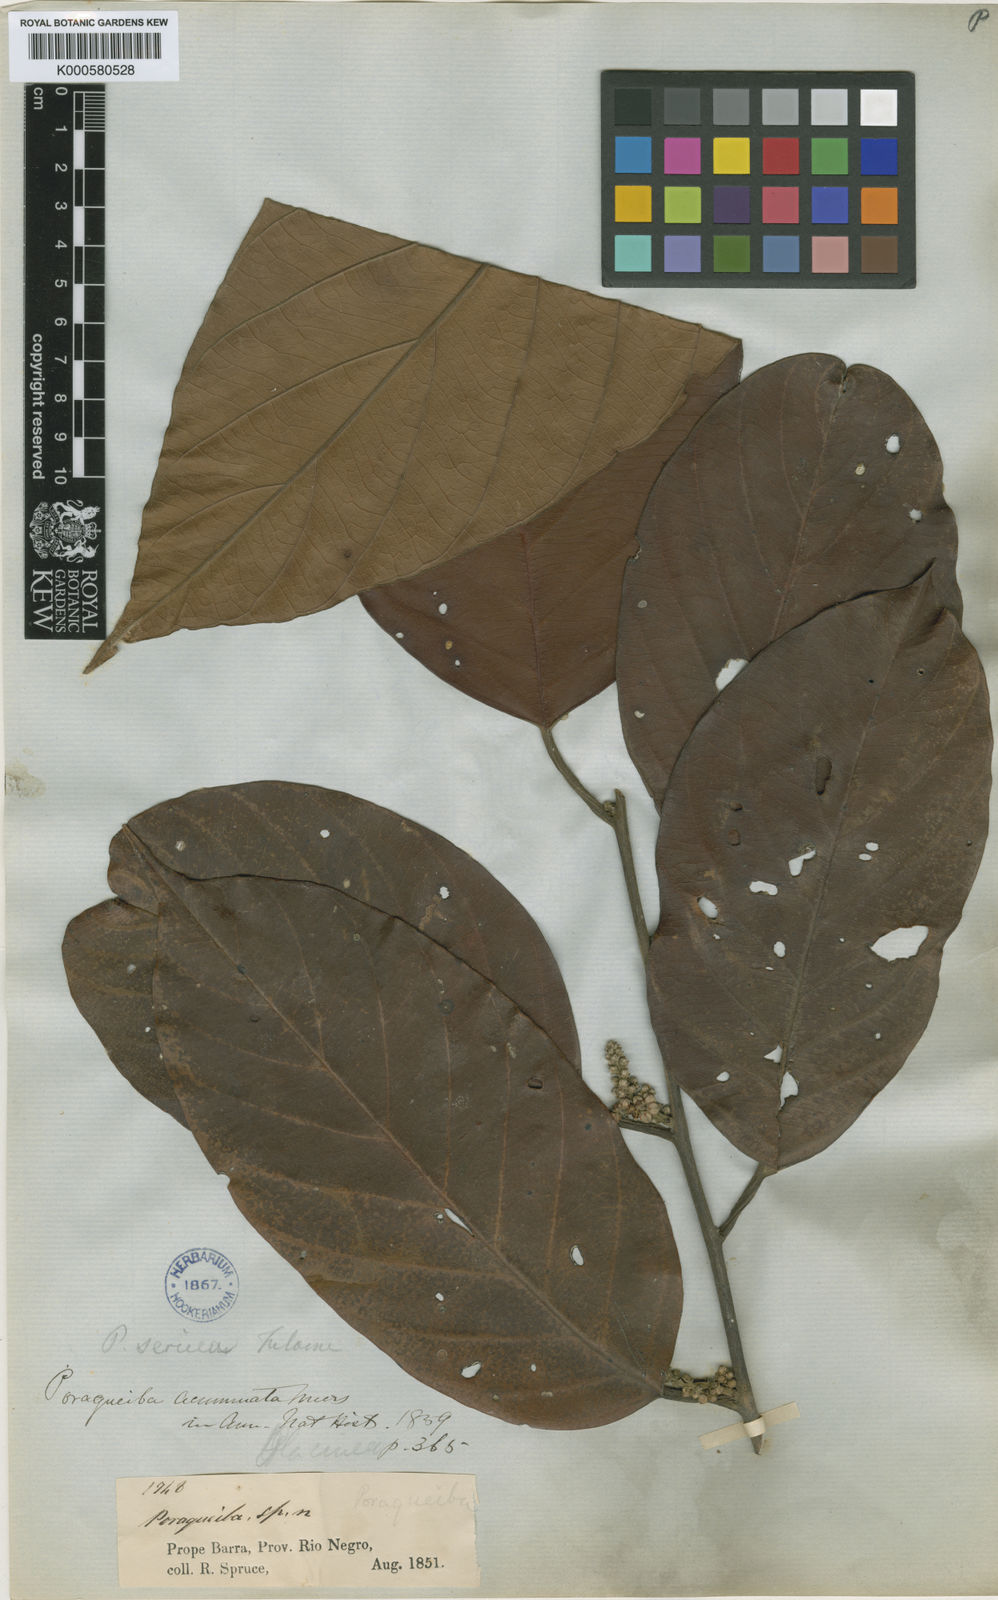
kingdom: Plantae
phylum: Tracheophyta
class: Magnoliopsida
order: Metteniusales
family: Metteniusaceae
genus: Poraqueiba
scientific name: Poraqueiba sericea
